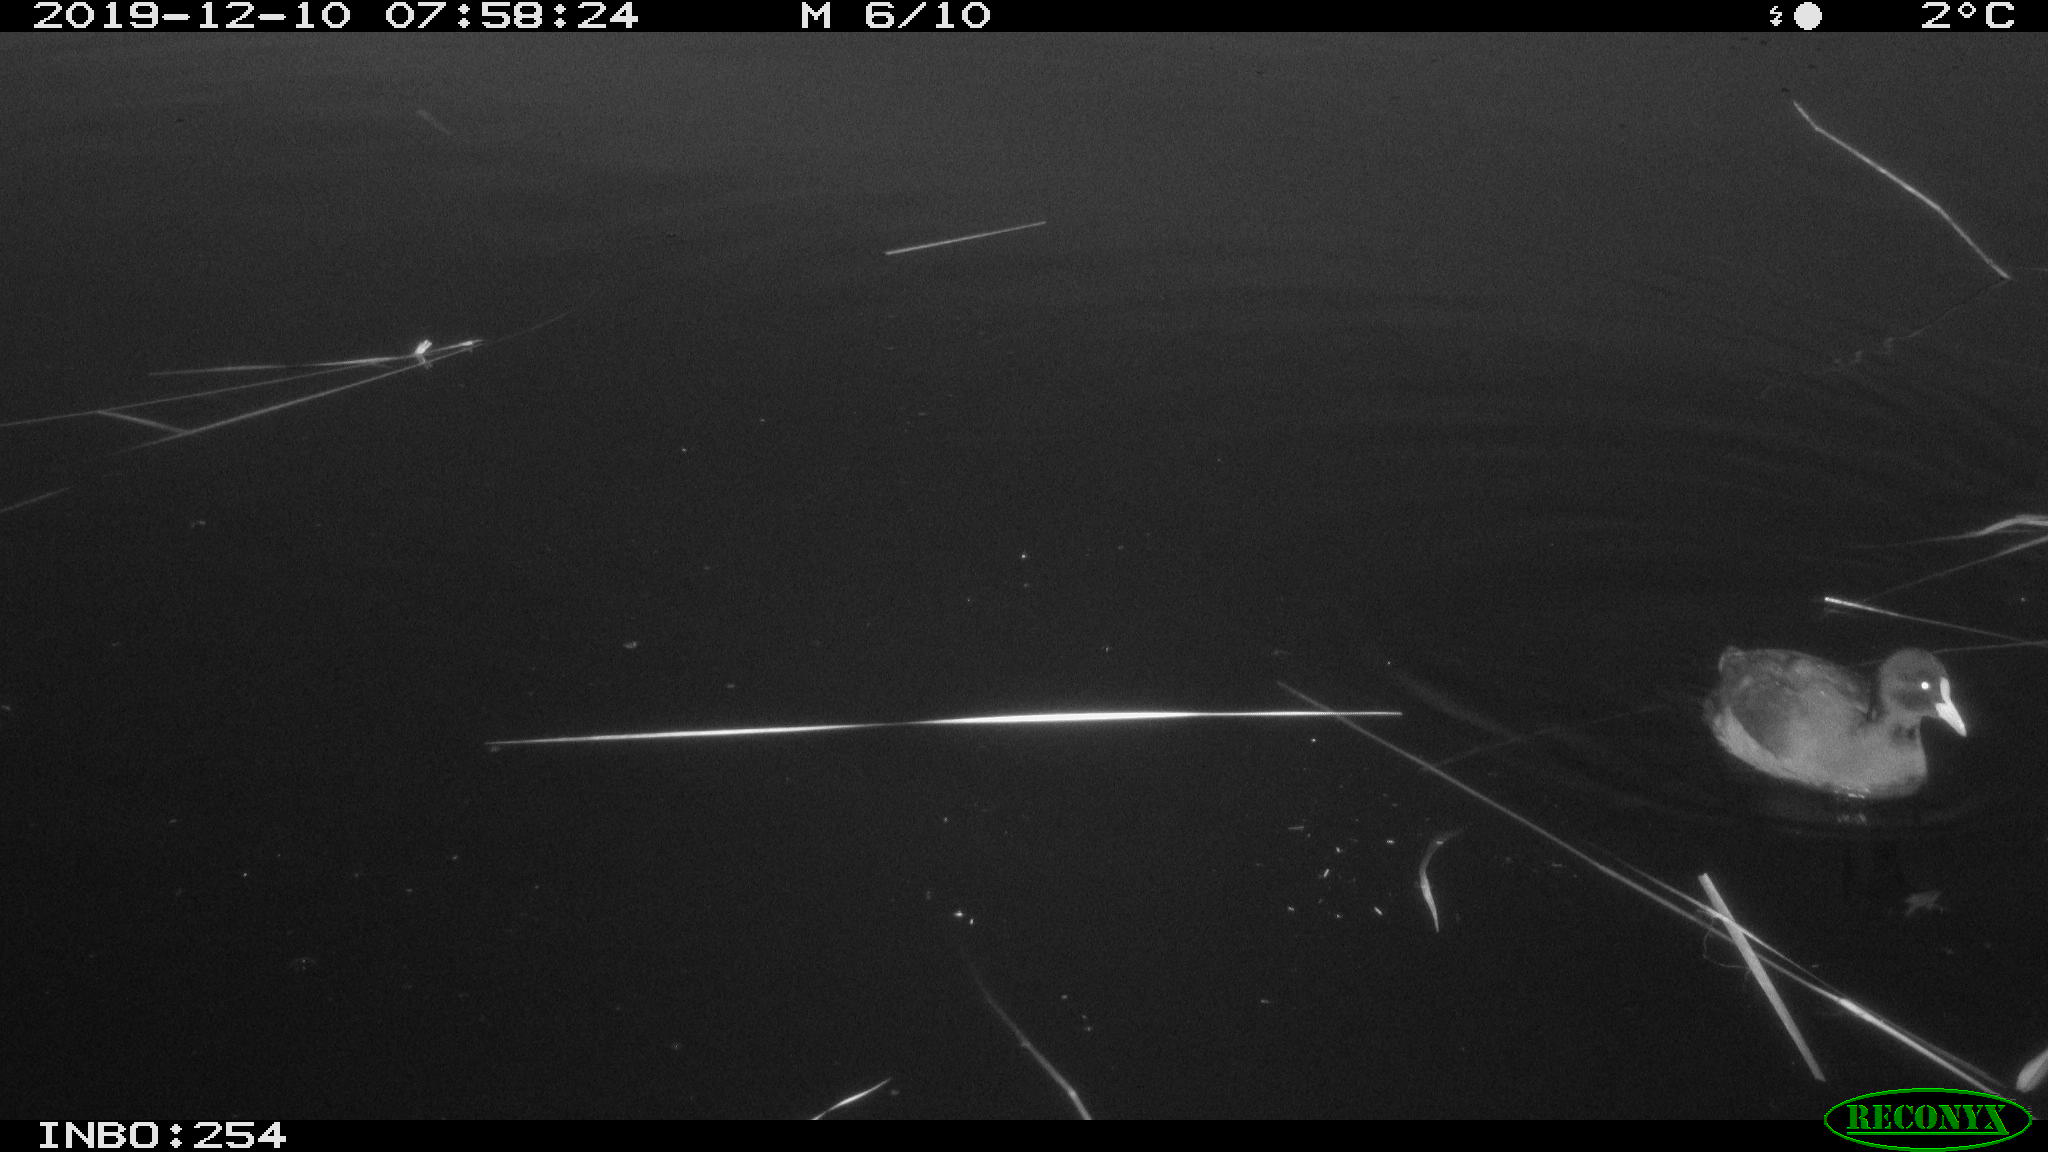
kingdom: Animalia
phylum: Chordata
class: Aves
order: Gruiformes
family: Rallidae
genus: Fulica
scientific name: Fulica atra
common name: Eurasian coot
